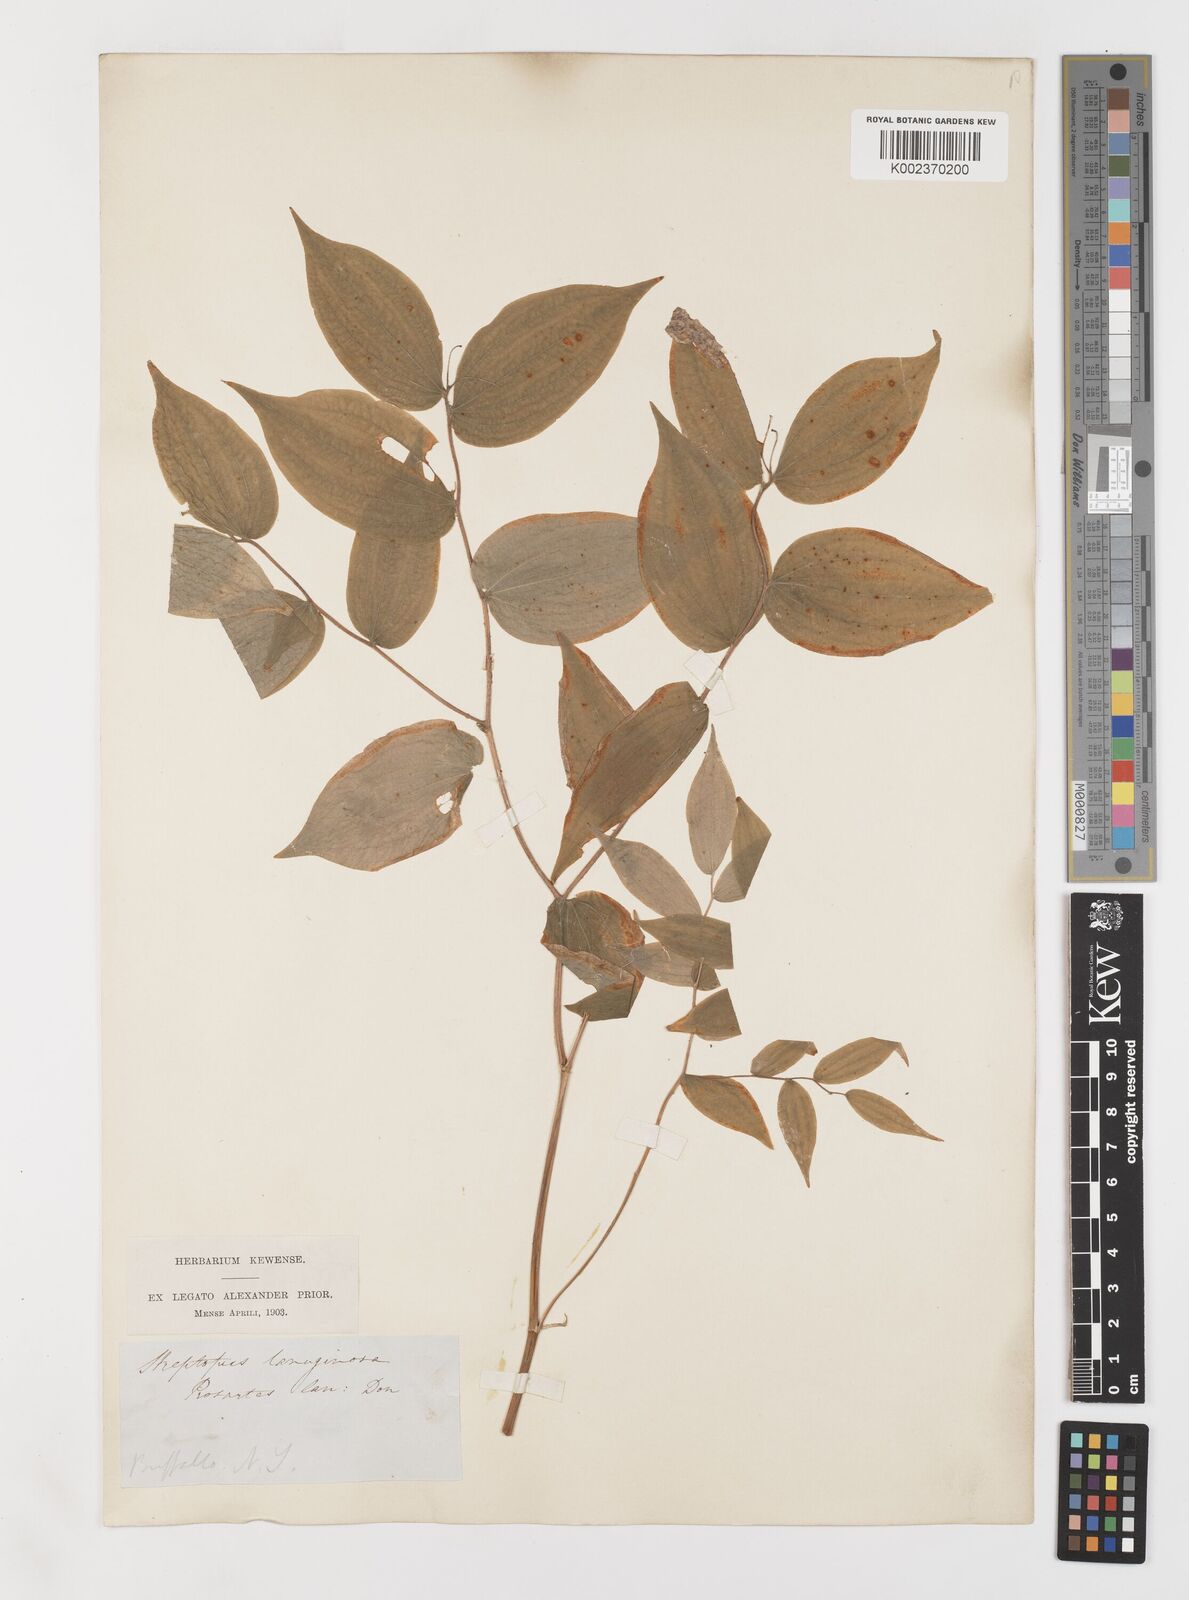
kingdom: Plantae
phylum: Tracheophyta
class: Liliopsida
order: Liliales
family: Liliaceae
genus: Prosartes
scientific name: Prosartes lanuginosa
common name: Hairy mandarin
